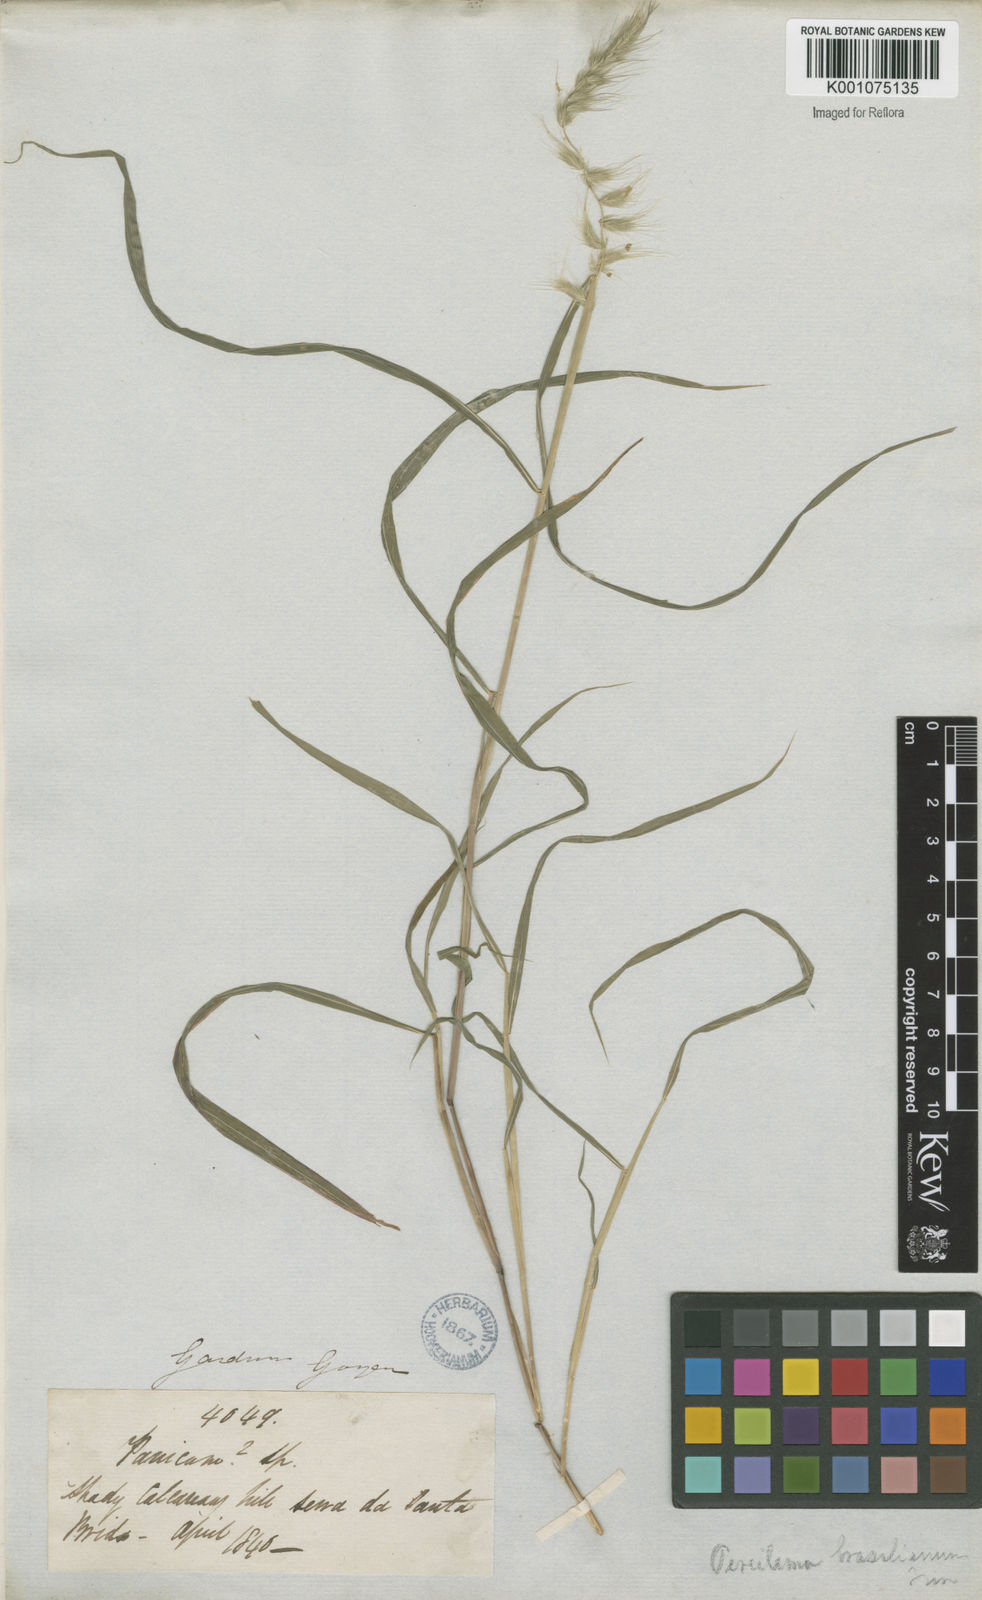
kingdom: Plantae
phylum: Tracheophyta
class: Liliopsida
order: Poales
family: Poaceae
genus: Muhlenbergia
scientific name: Muhlenbergia beyrichiana
